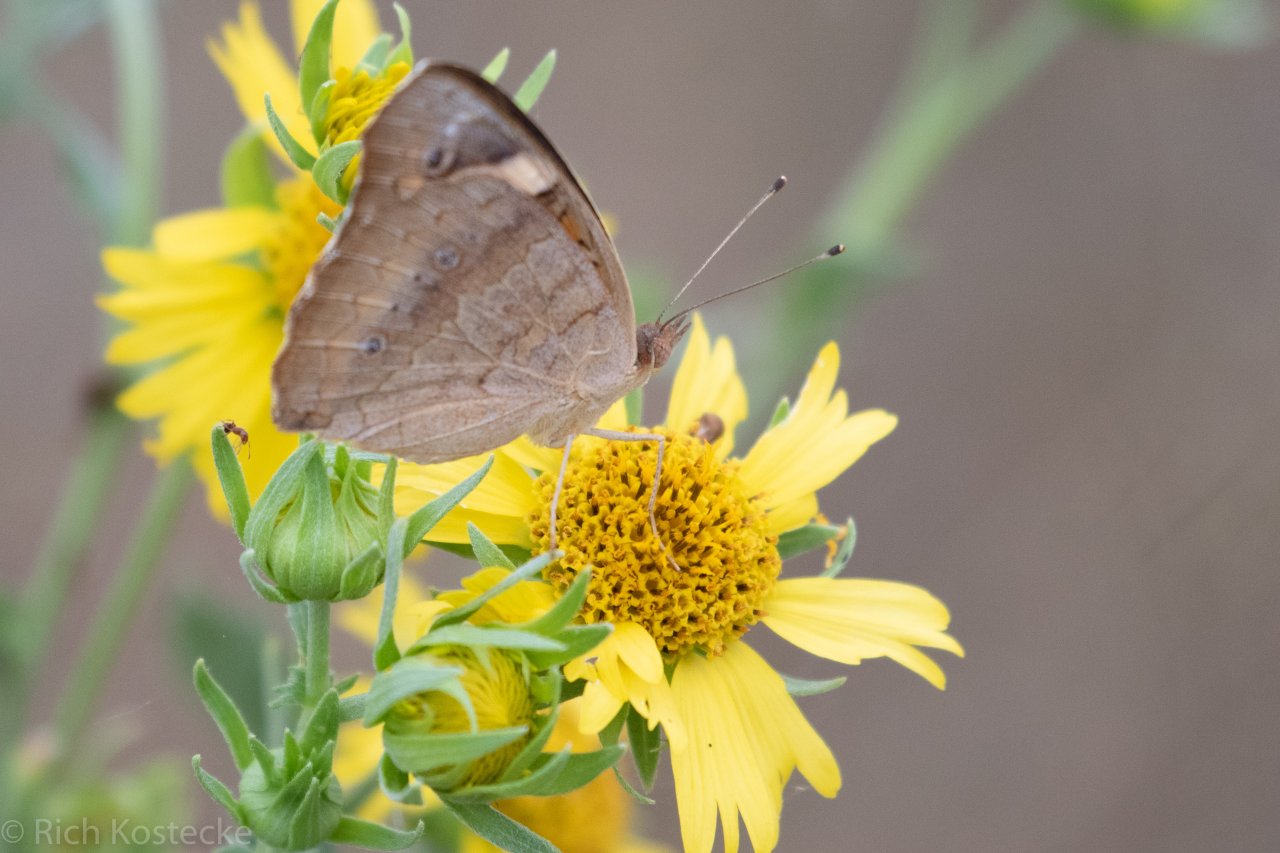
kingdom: Animalia
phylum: Arthropoda
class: Insecta
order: Lepidoptera
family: Nymphalidae
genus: Junonia
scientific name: Junonia coenia
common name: Common Buckeye
